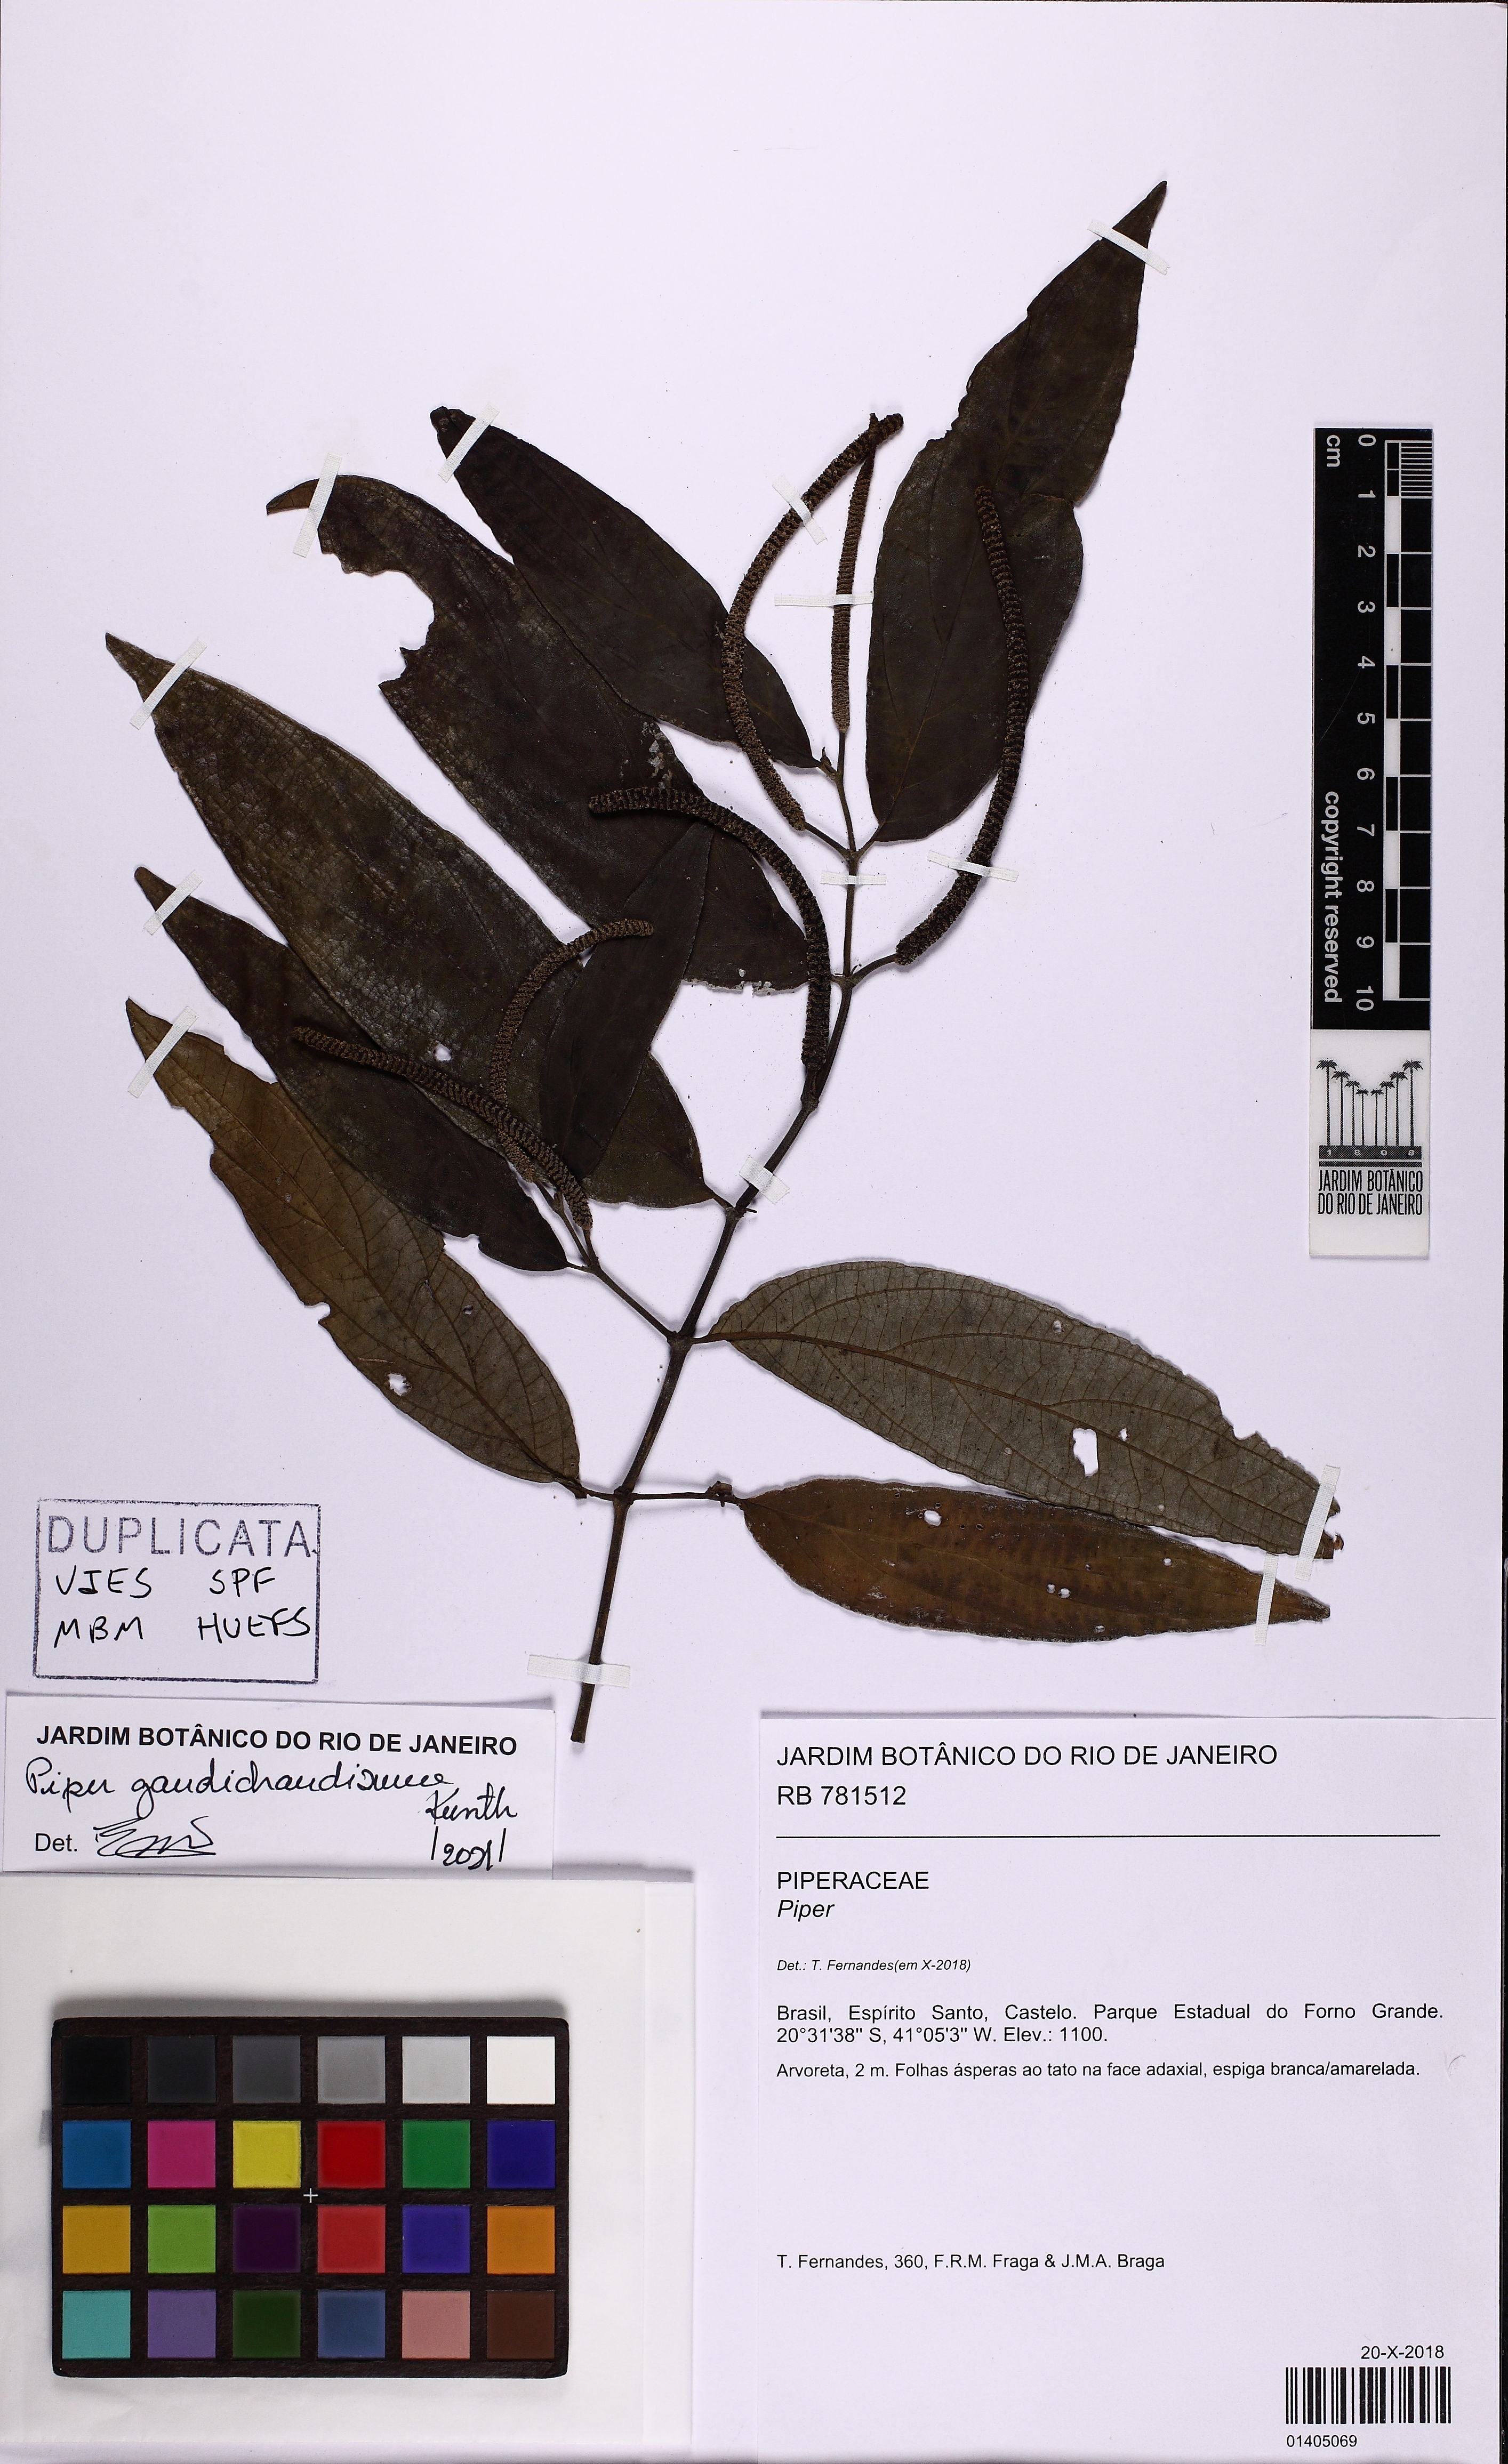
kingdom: Plantae
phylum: Tracheophyta
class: Magnoliopsida
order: Piperales
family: Piperaceae
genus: Piper
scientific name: Piper gaudichaudianum
